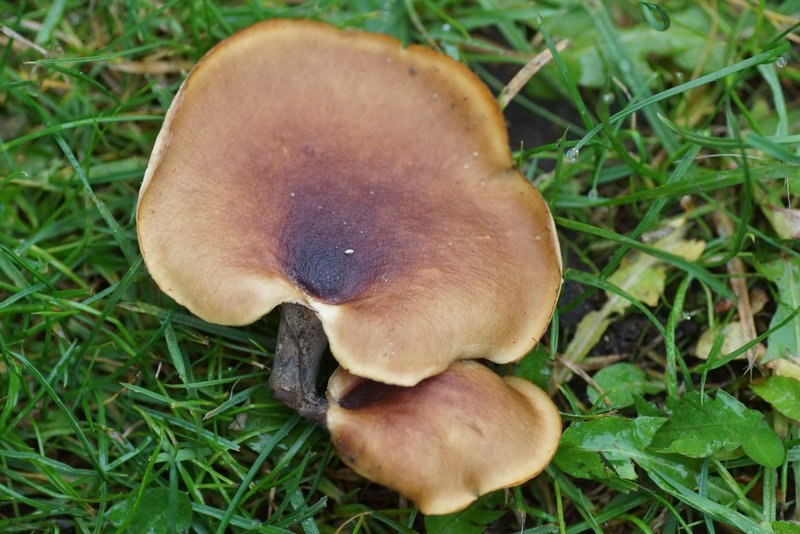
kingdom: Fungi
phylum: Basidiomycota
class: Agaricomycetes
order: Polyporales
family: Polyporaceae
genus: Picipes
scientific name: Picipes badius
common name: kastaniebrun stilkporesvamp
